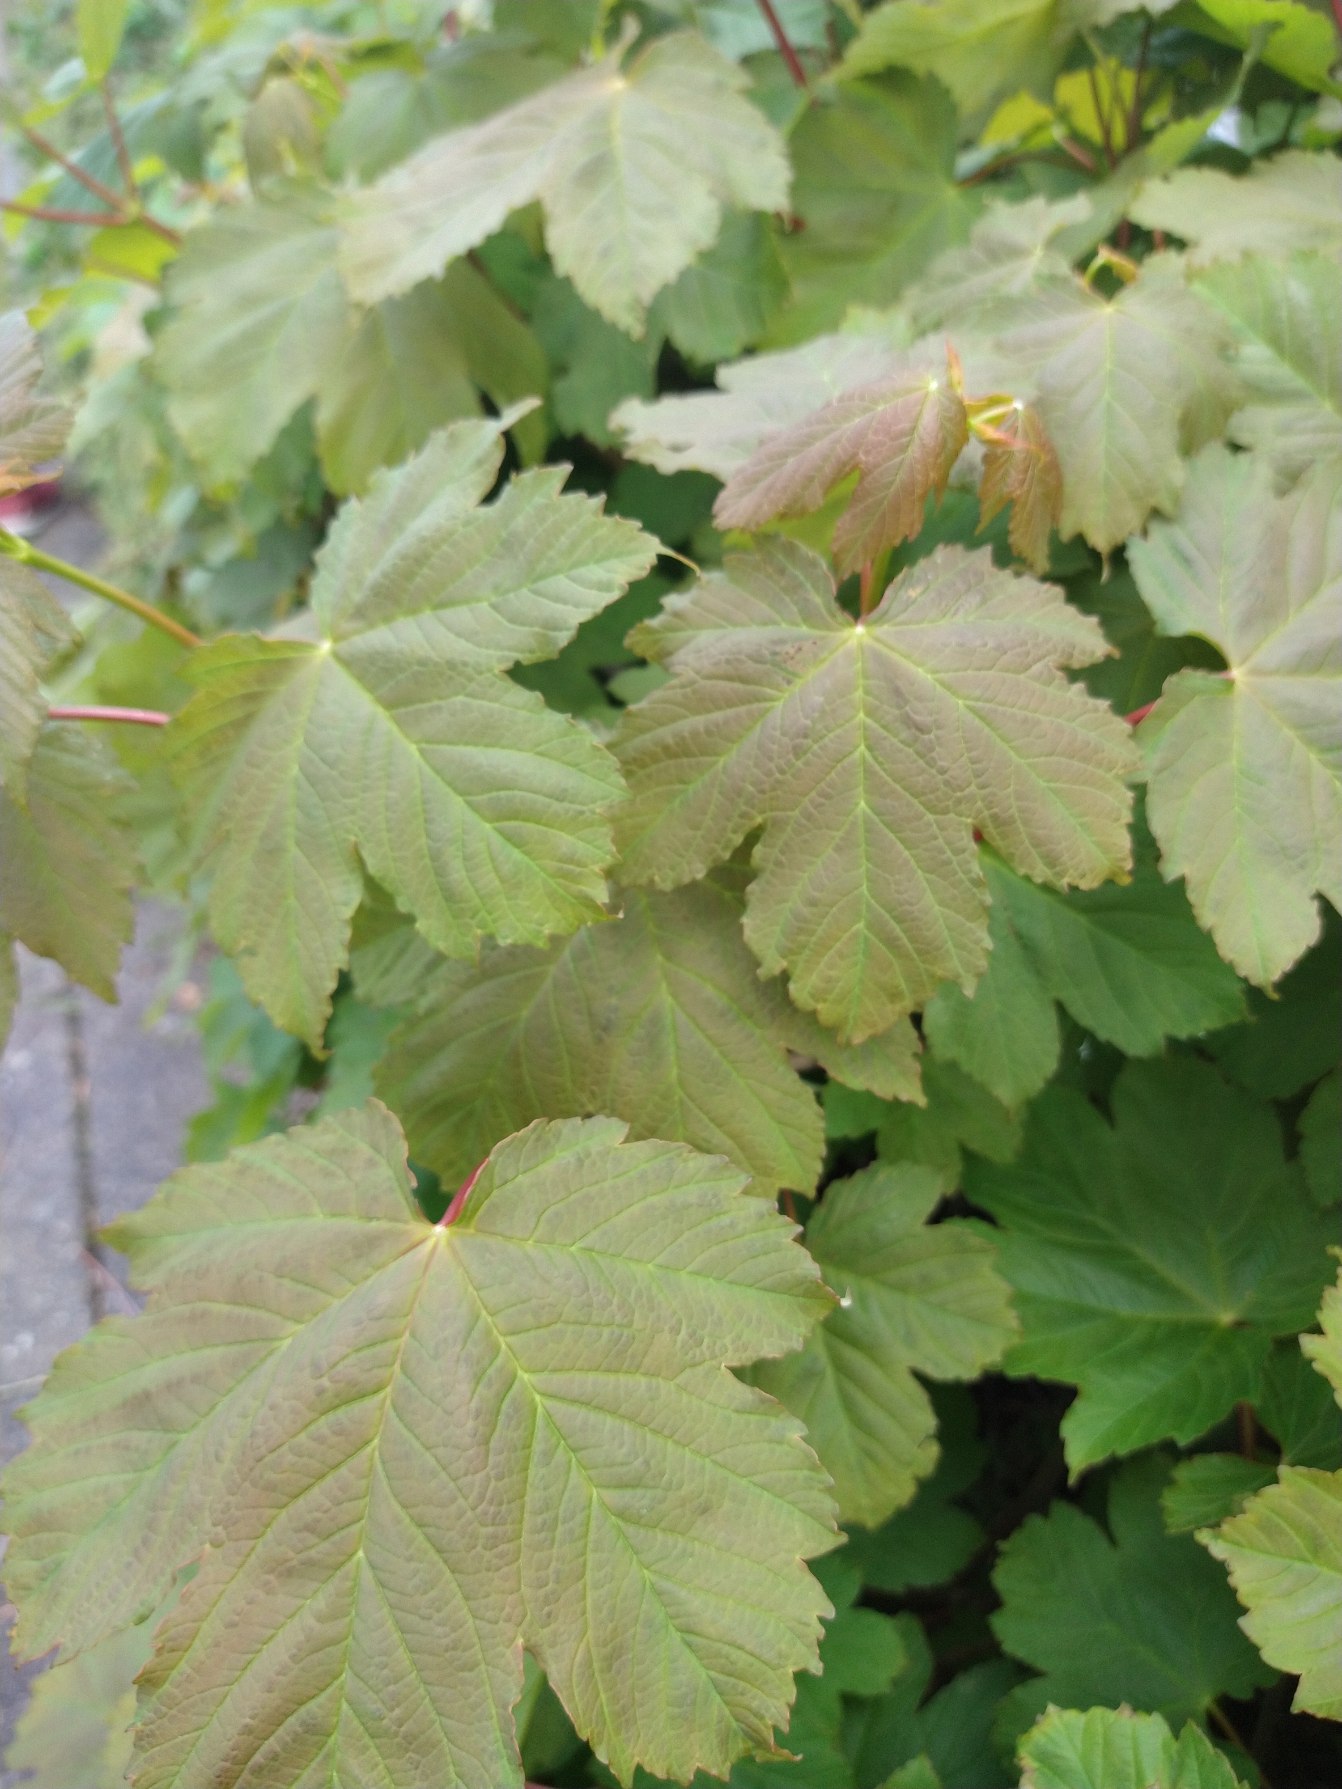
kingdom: Plantae
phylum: Tracheophyta
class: Magnoliopsida
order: Sapindales
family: Sapindaceae
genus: Acer
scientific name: Acer pseudoplatanus
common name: Ahorn
